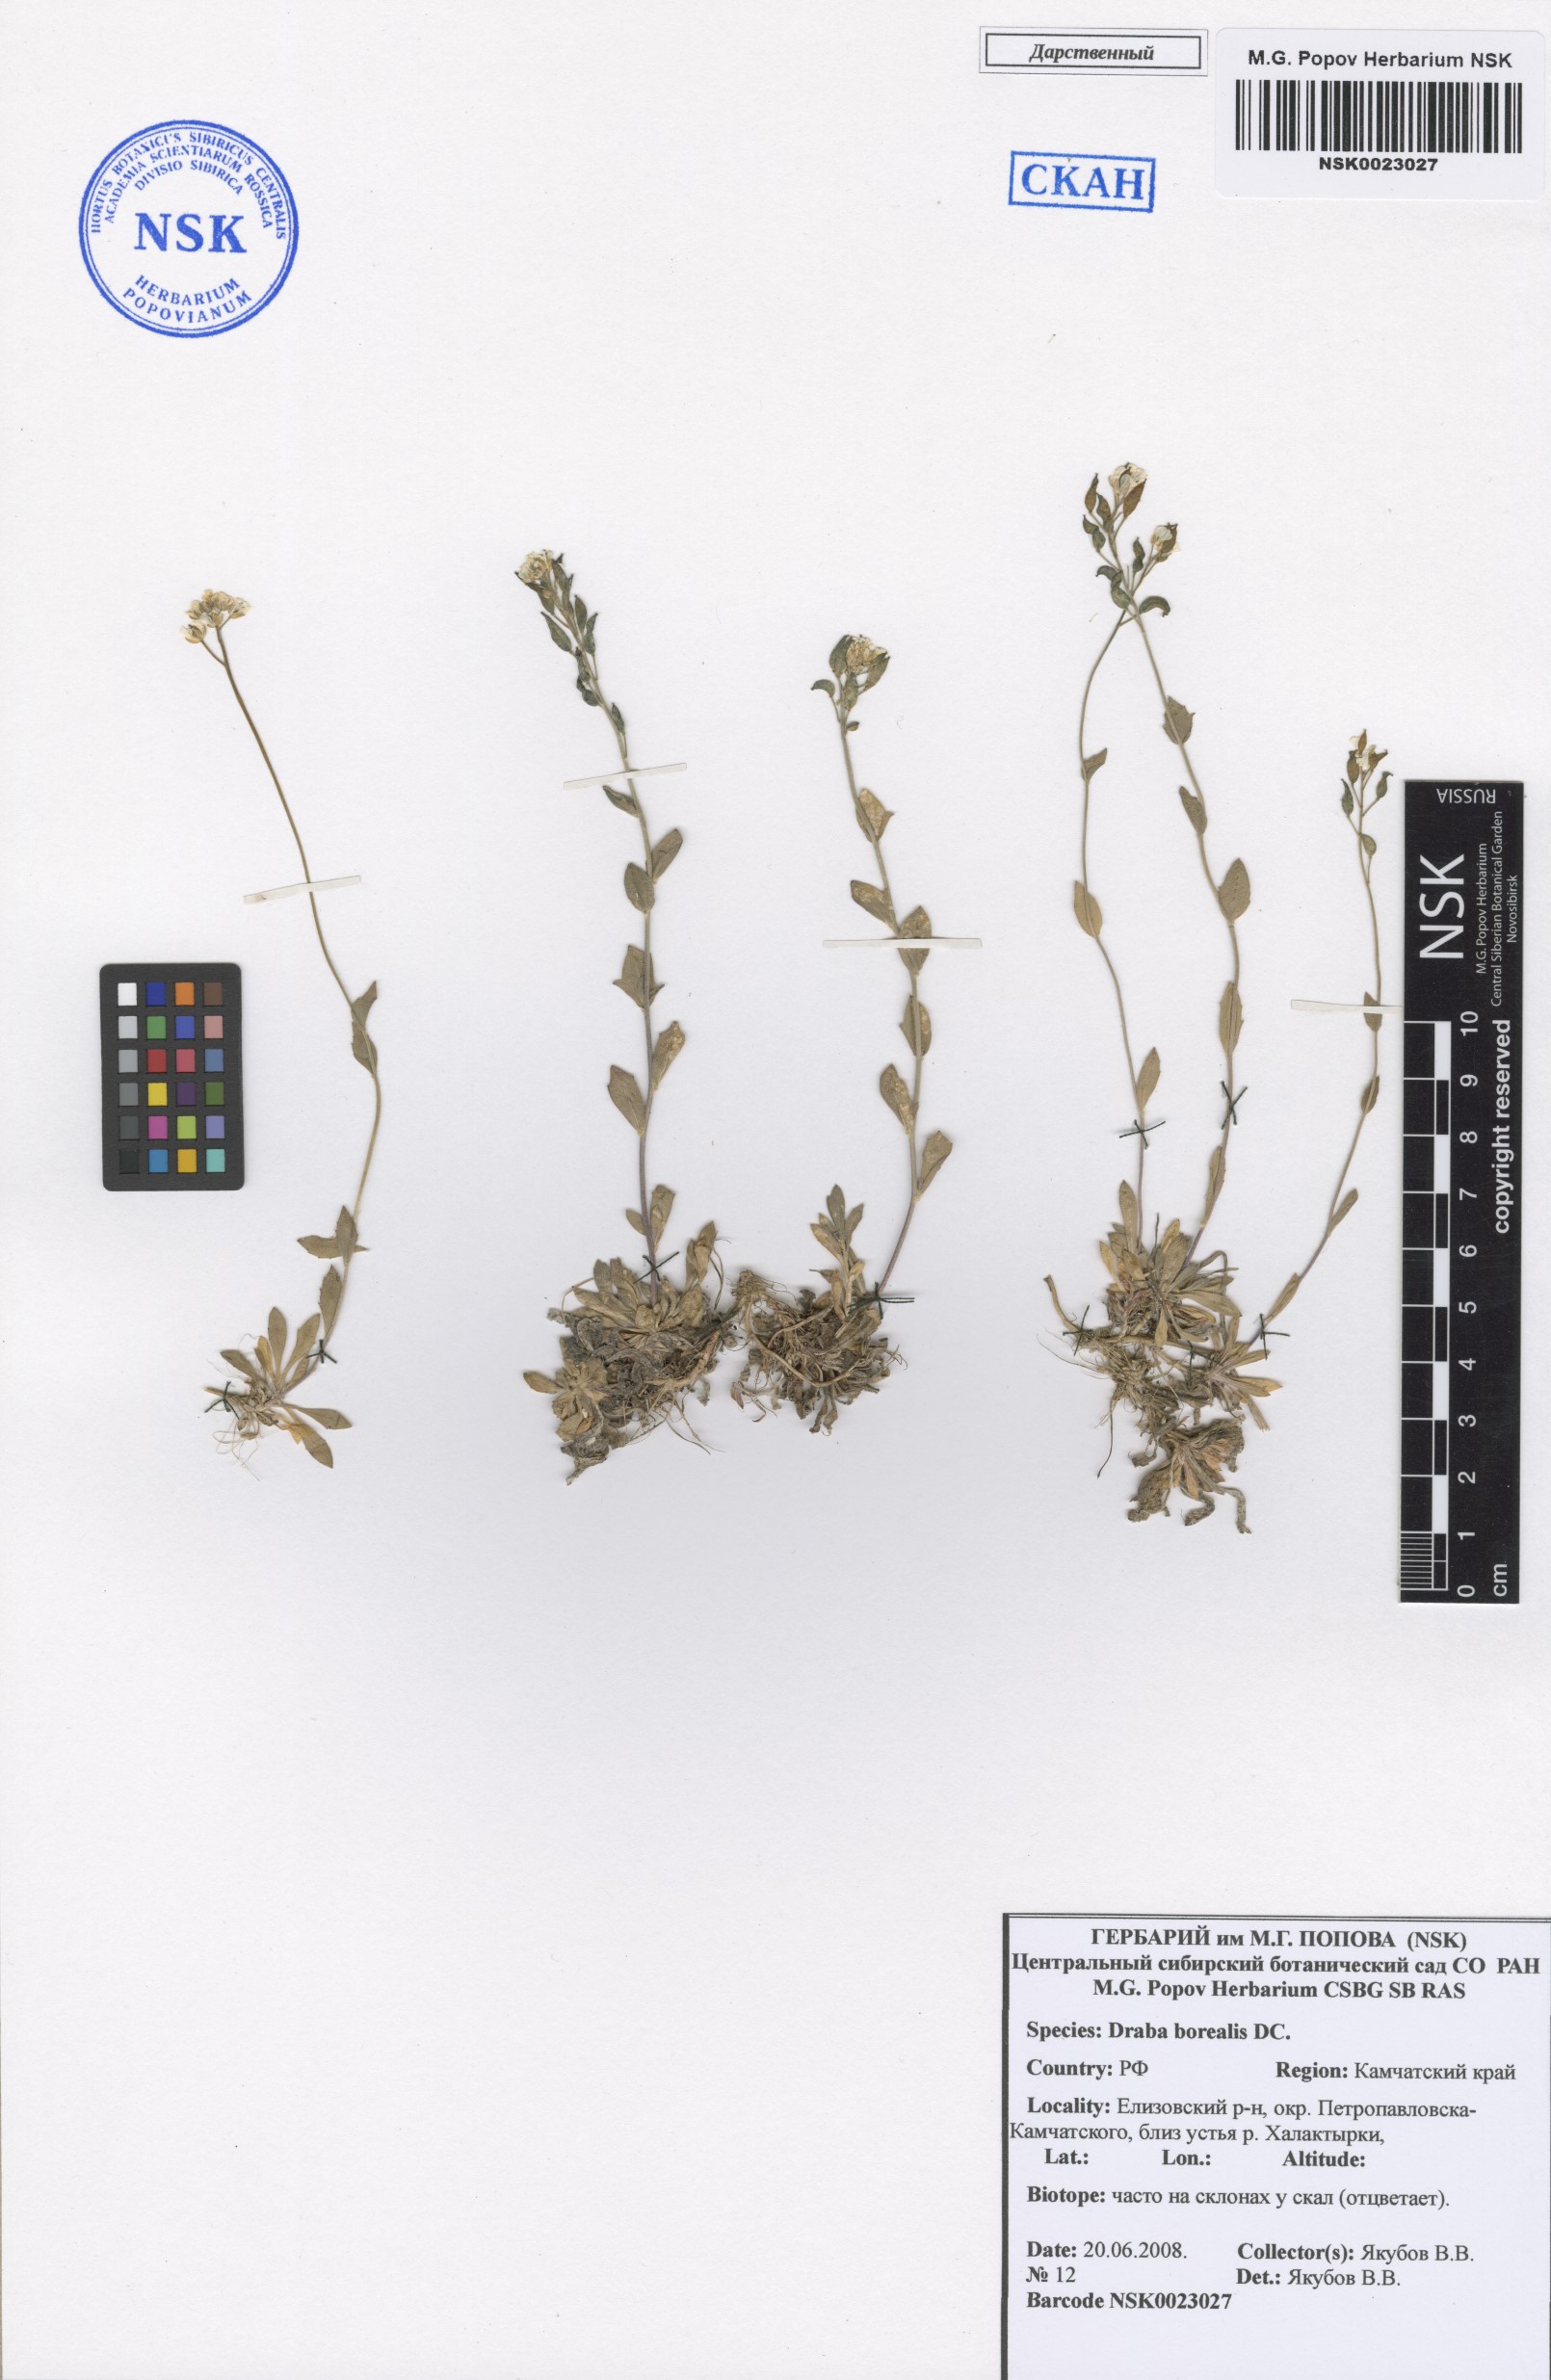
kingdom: Plantae
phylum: Tracheophyta
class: Magnoliopsida
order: Brassicales
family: Brassicaceae
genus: Draba
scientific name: Draba borealis
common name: Boreal draba
